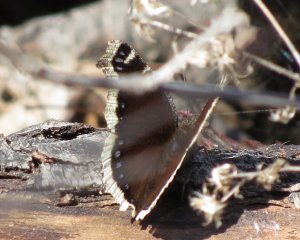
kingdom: Animalia
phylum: Arthropoda
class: Insecta
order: Lepidoptera
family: Nymphalidae
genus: Nymphalis
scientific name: Nymphalis antiopa
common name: Mourning Cloak
